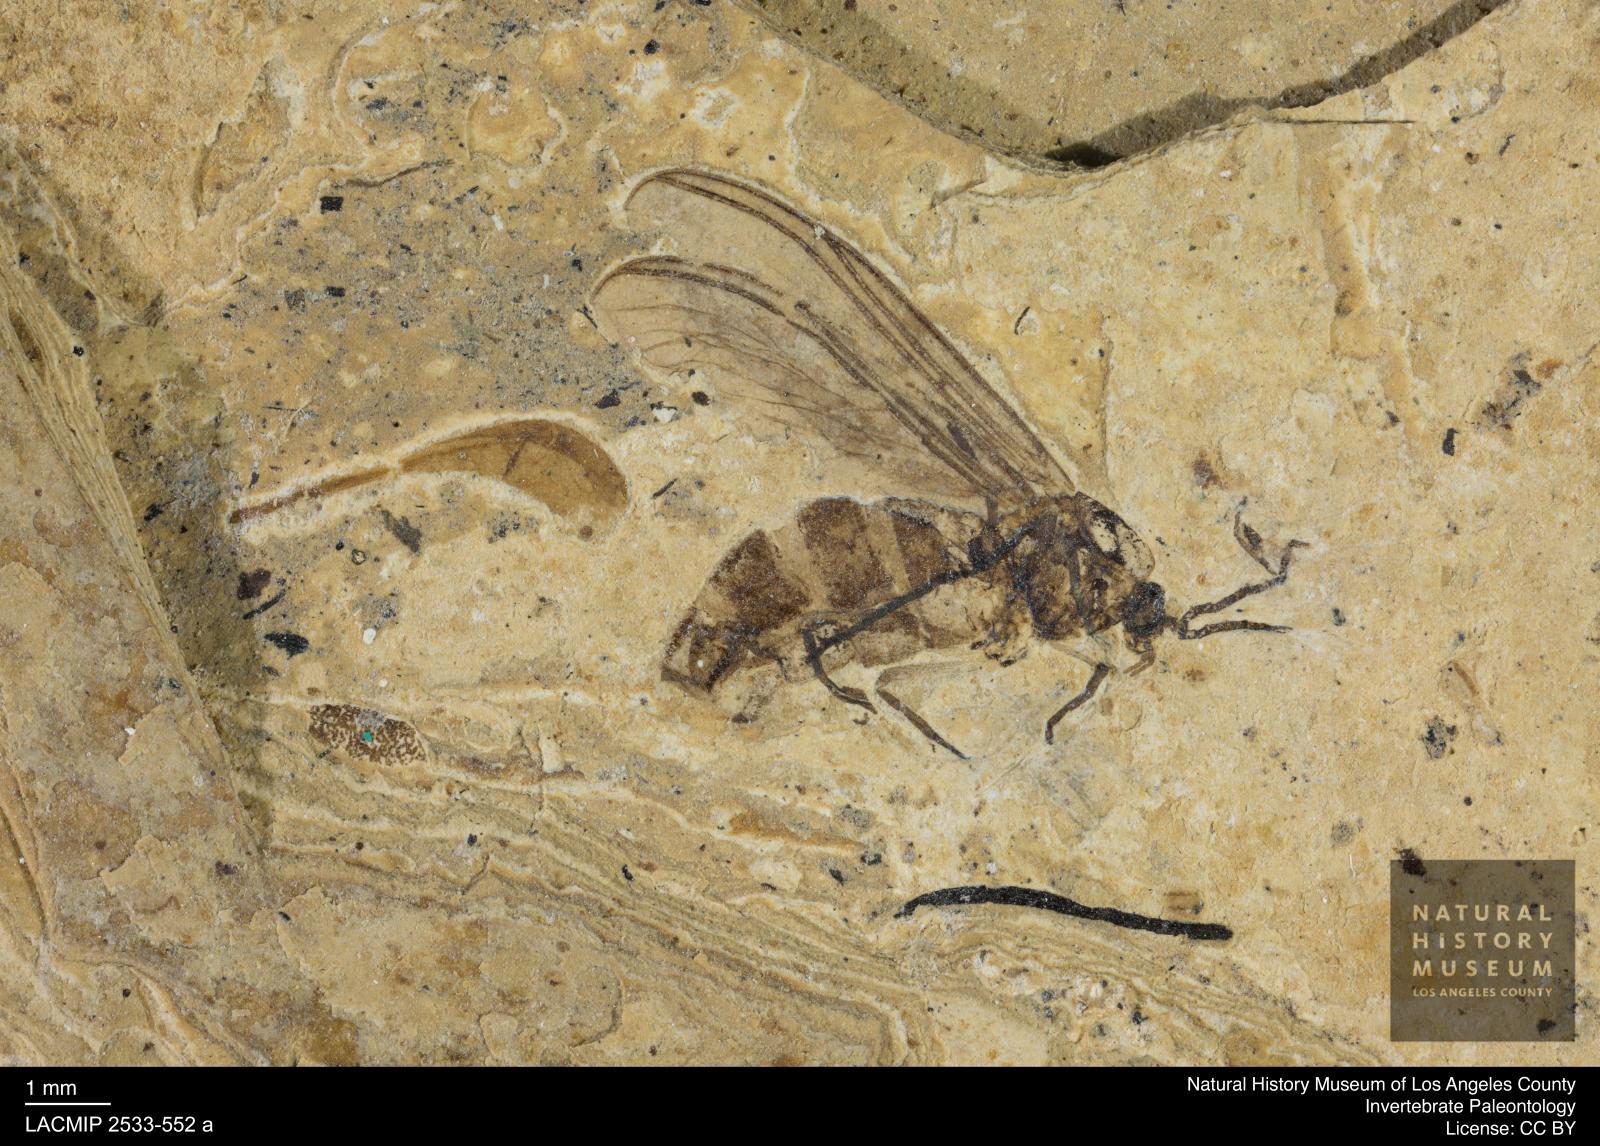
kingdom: Animalia
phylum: Arthropoda
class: Insecta
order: Diptera
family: Sciaridae
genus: Sciara
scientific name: Sciara aulica
